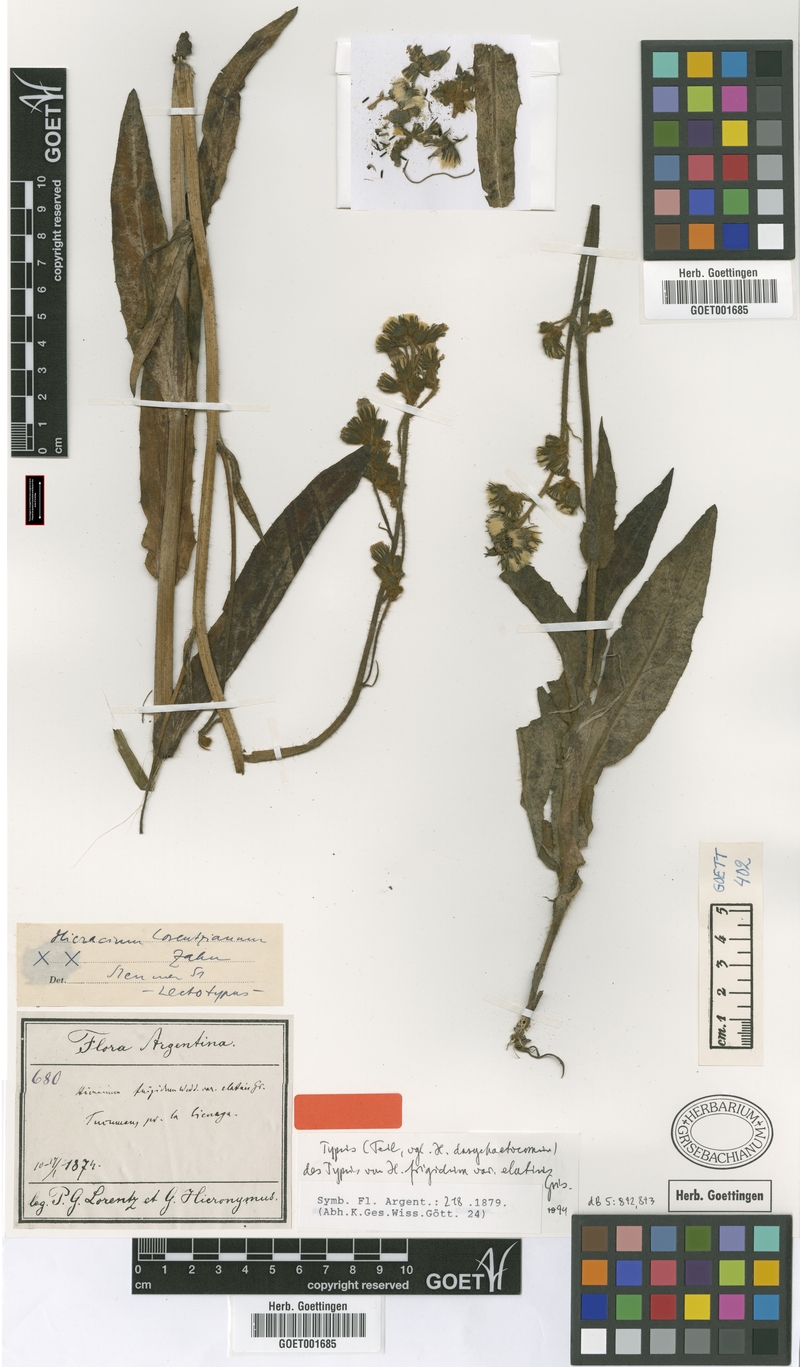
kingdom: Plantae
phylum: Tracheophyta
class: Magnoliopsida
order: Asterales
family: Asteraceae
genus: Hieracium
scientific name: Hieracium lorentzianum
